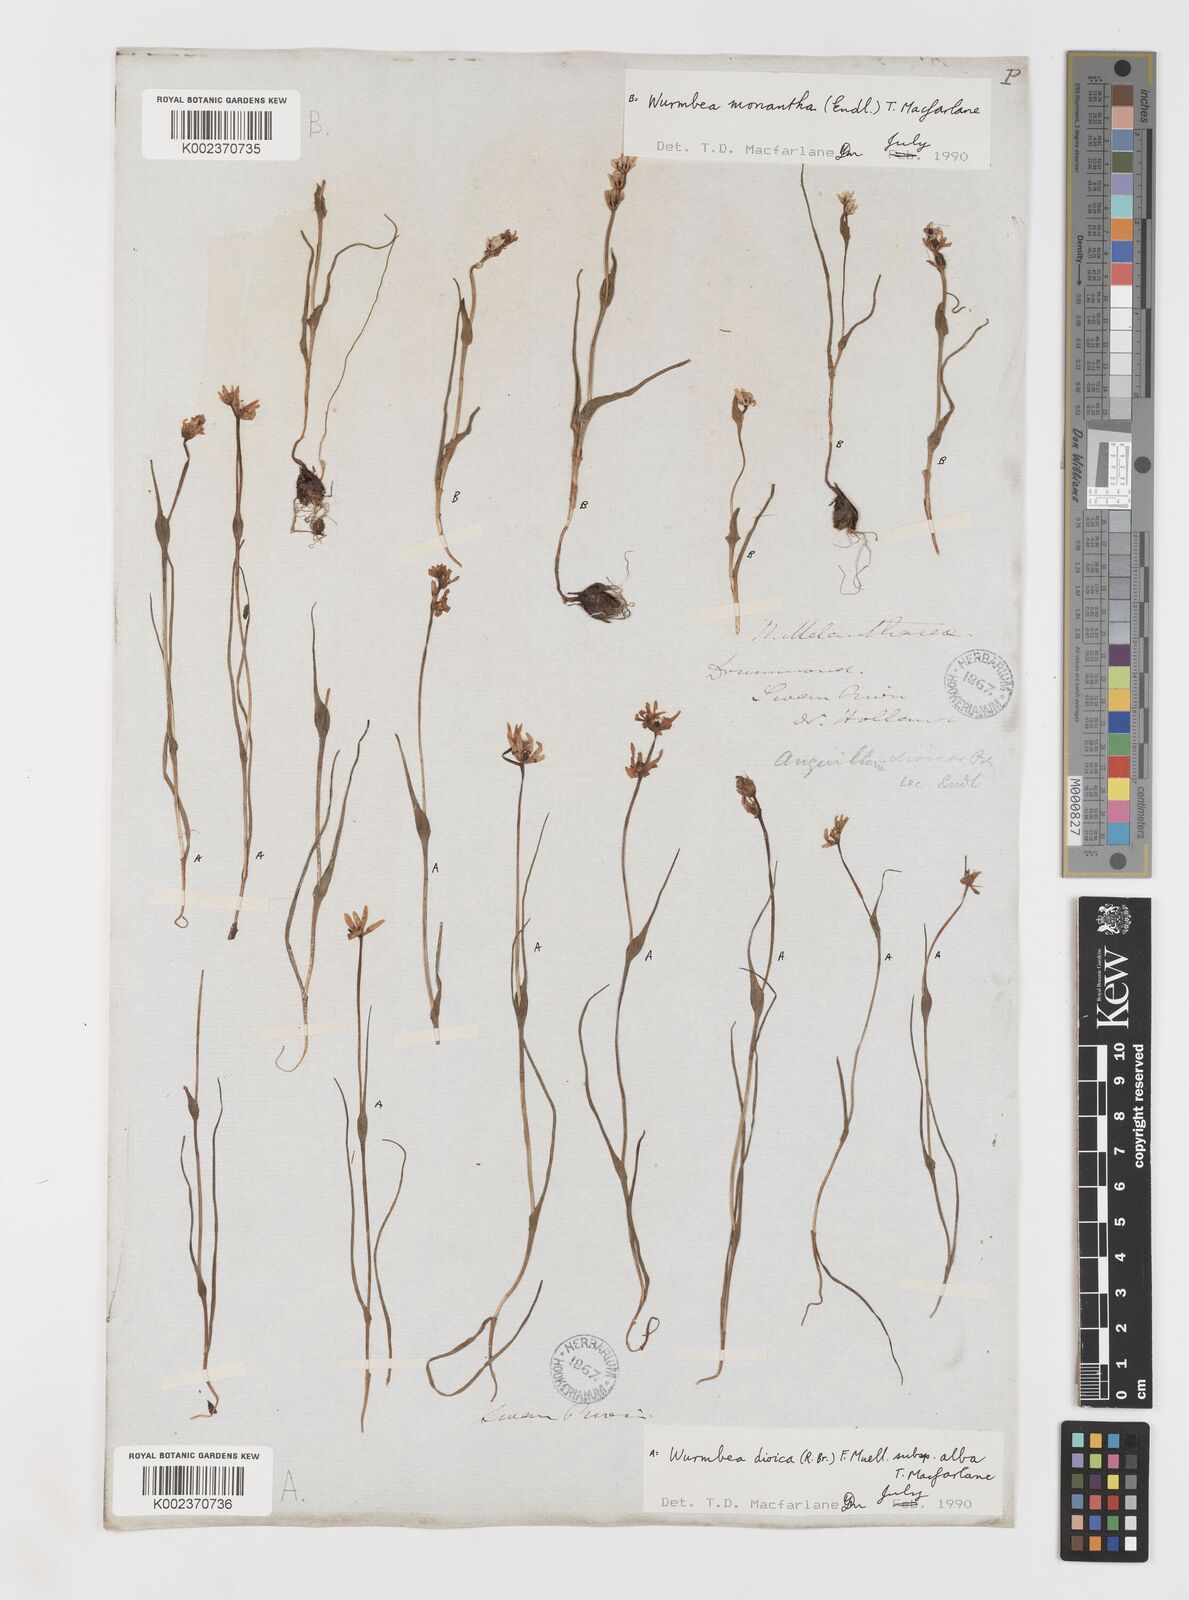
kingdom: Plantae
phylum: Tracheophyta
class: Liliopsida
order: Liliales
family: Colchicaceae
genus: Wurmbea
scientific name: Wurmbea dioica
